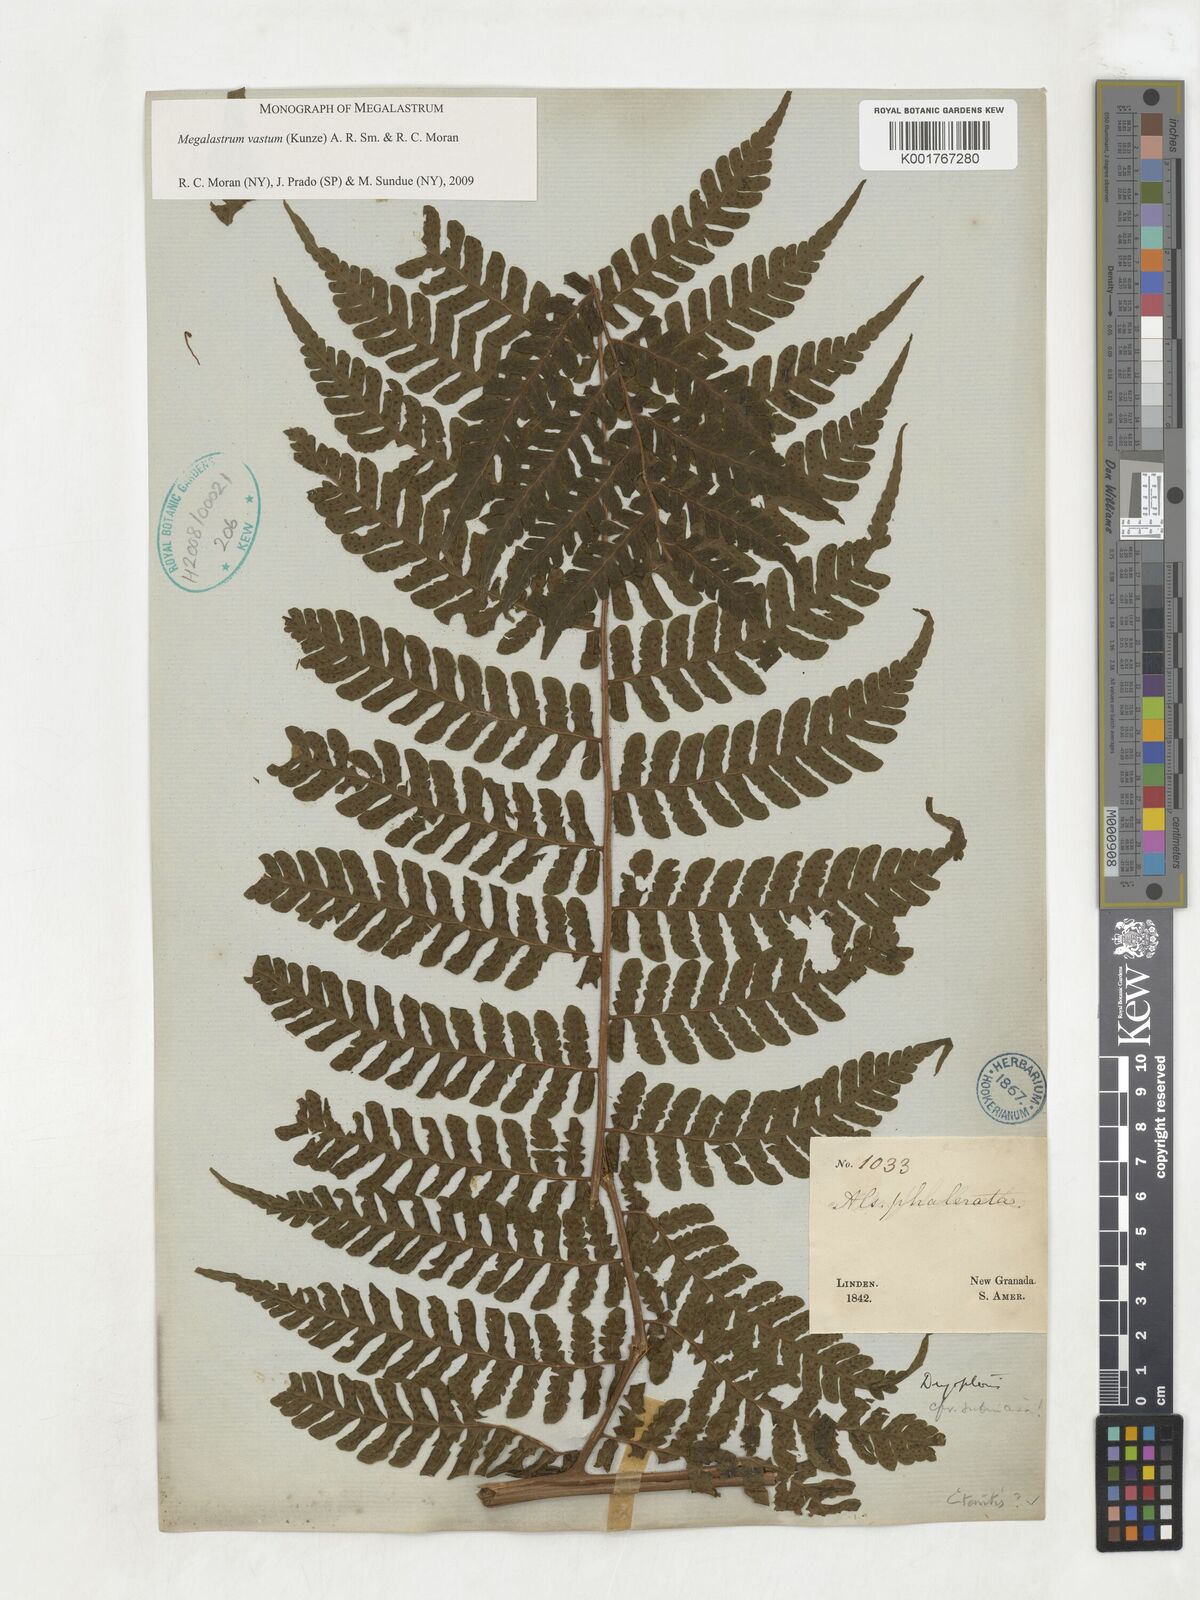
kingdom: Plantae
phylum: Tracheophyta
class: Polypodiopsida
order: Polypodiales
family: Dryopteridaceae
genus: Megalastrum
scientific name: Megalastrum vastum
